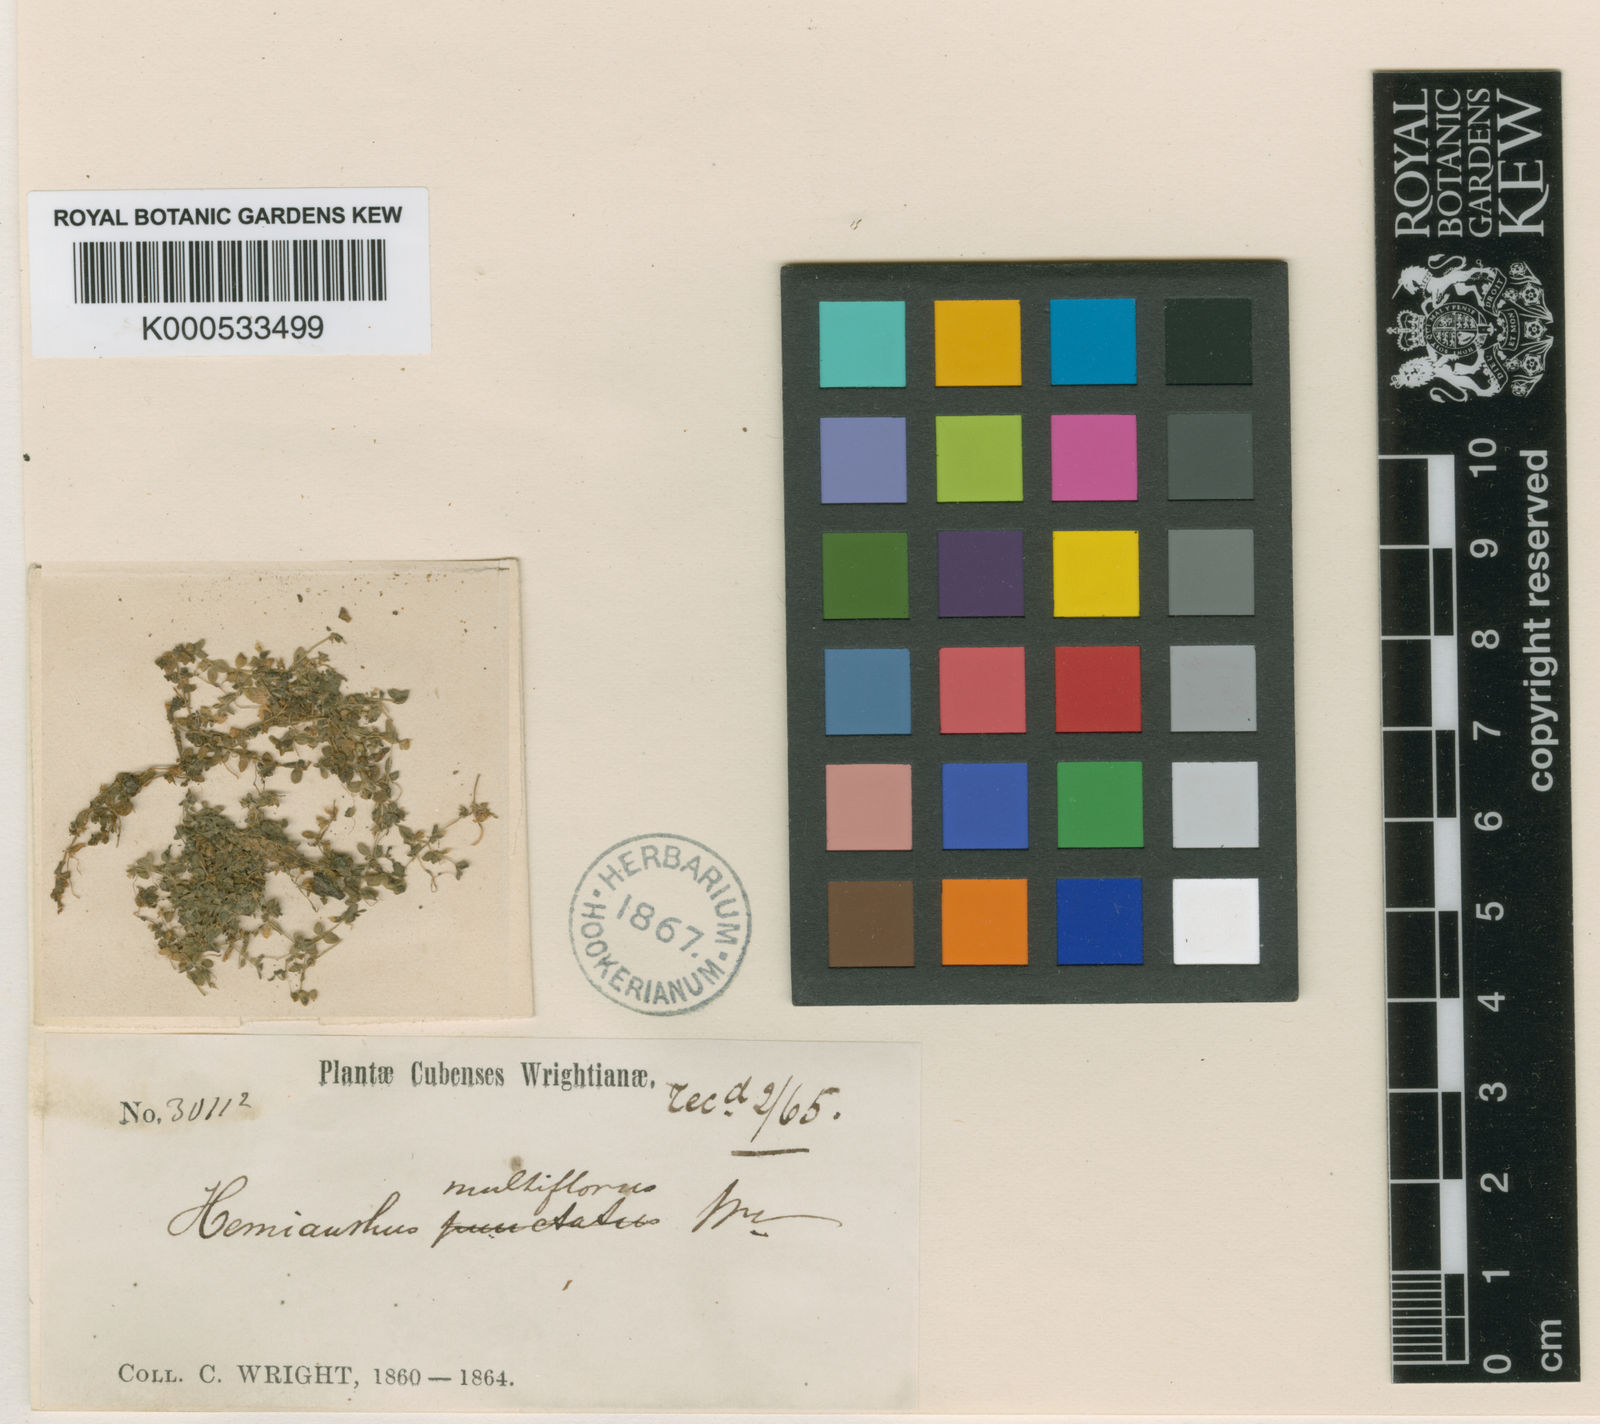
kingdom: Plantae
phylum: Tracheophyta
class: Magnoliopsida
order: Lamiales
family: Linderniaceae
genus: Micranthemum
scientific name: Micranthemum
